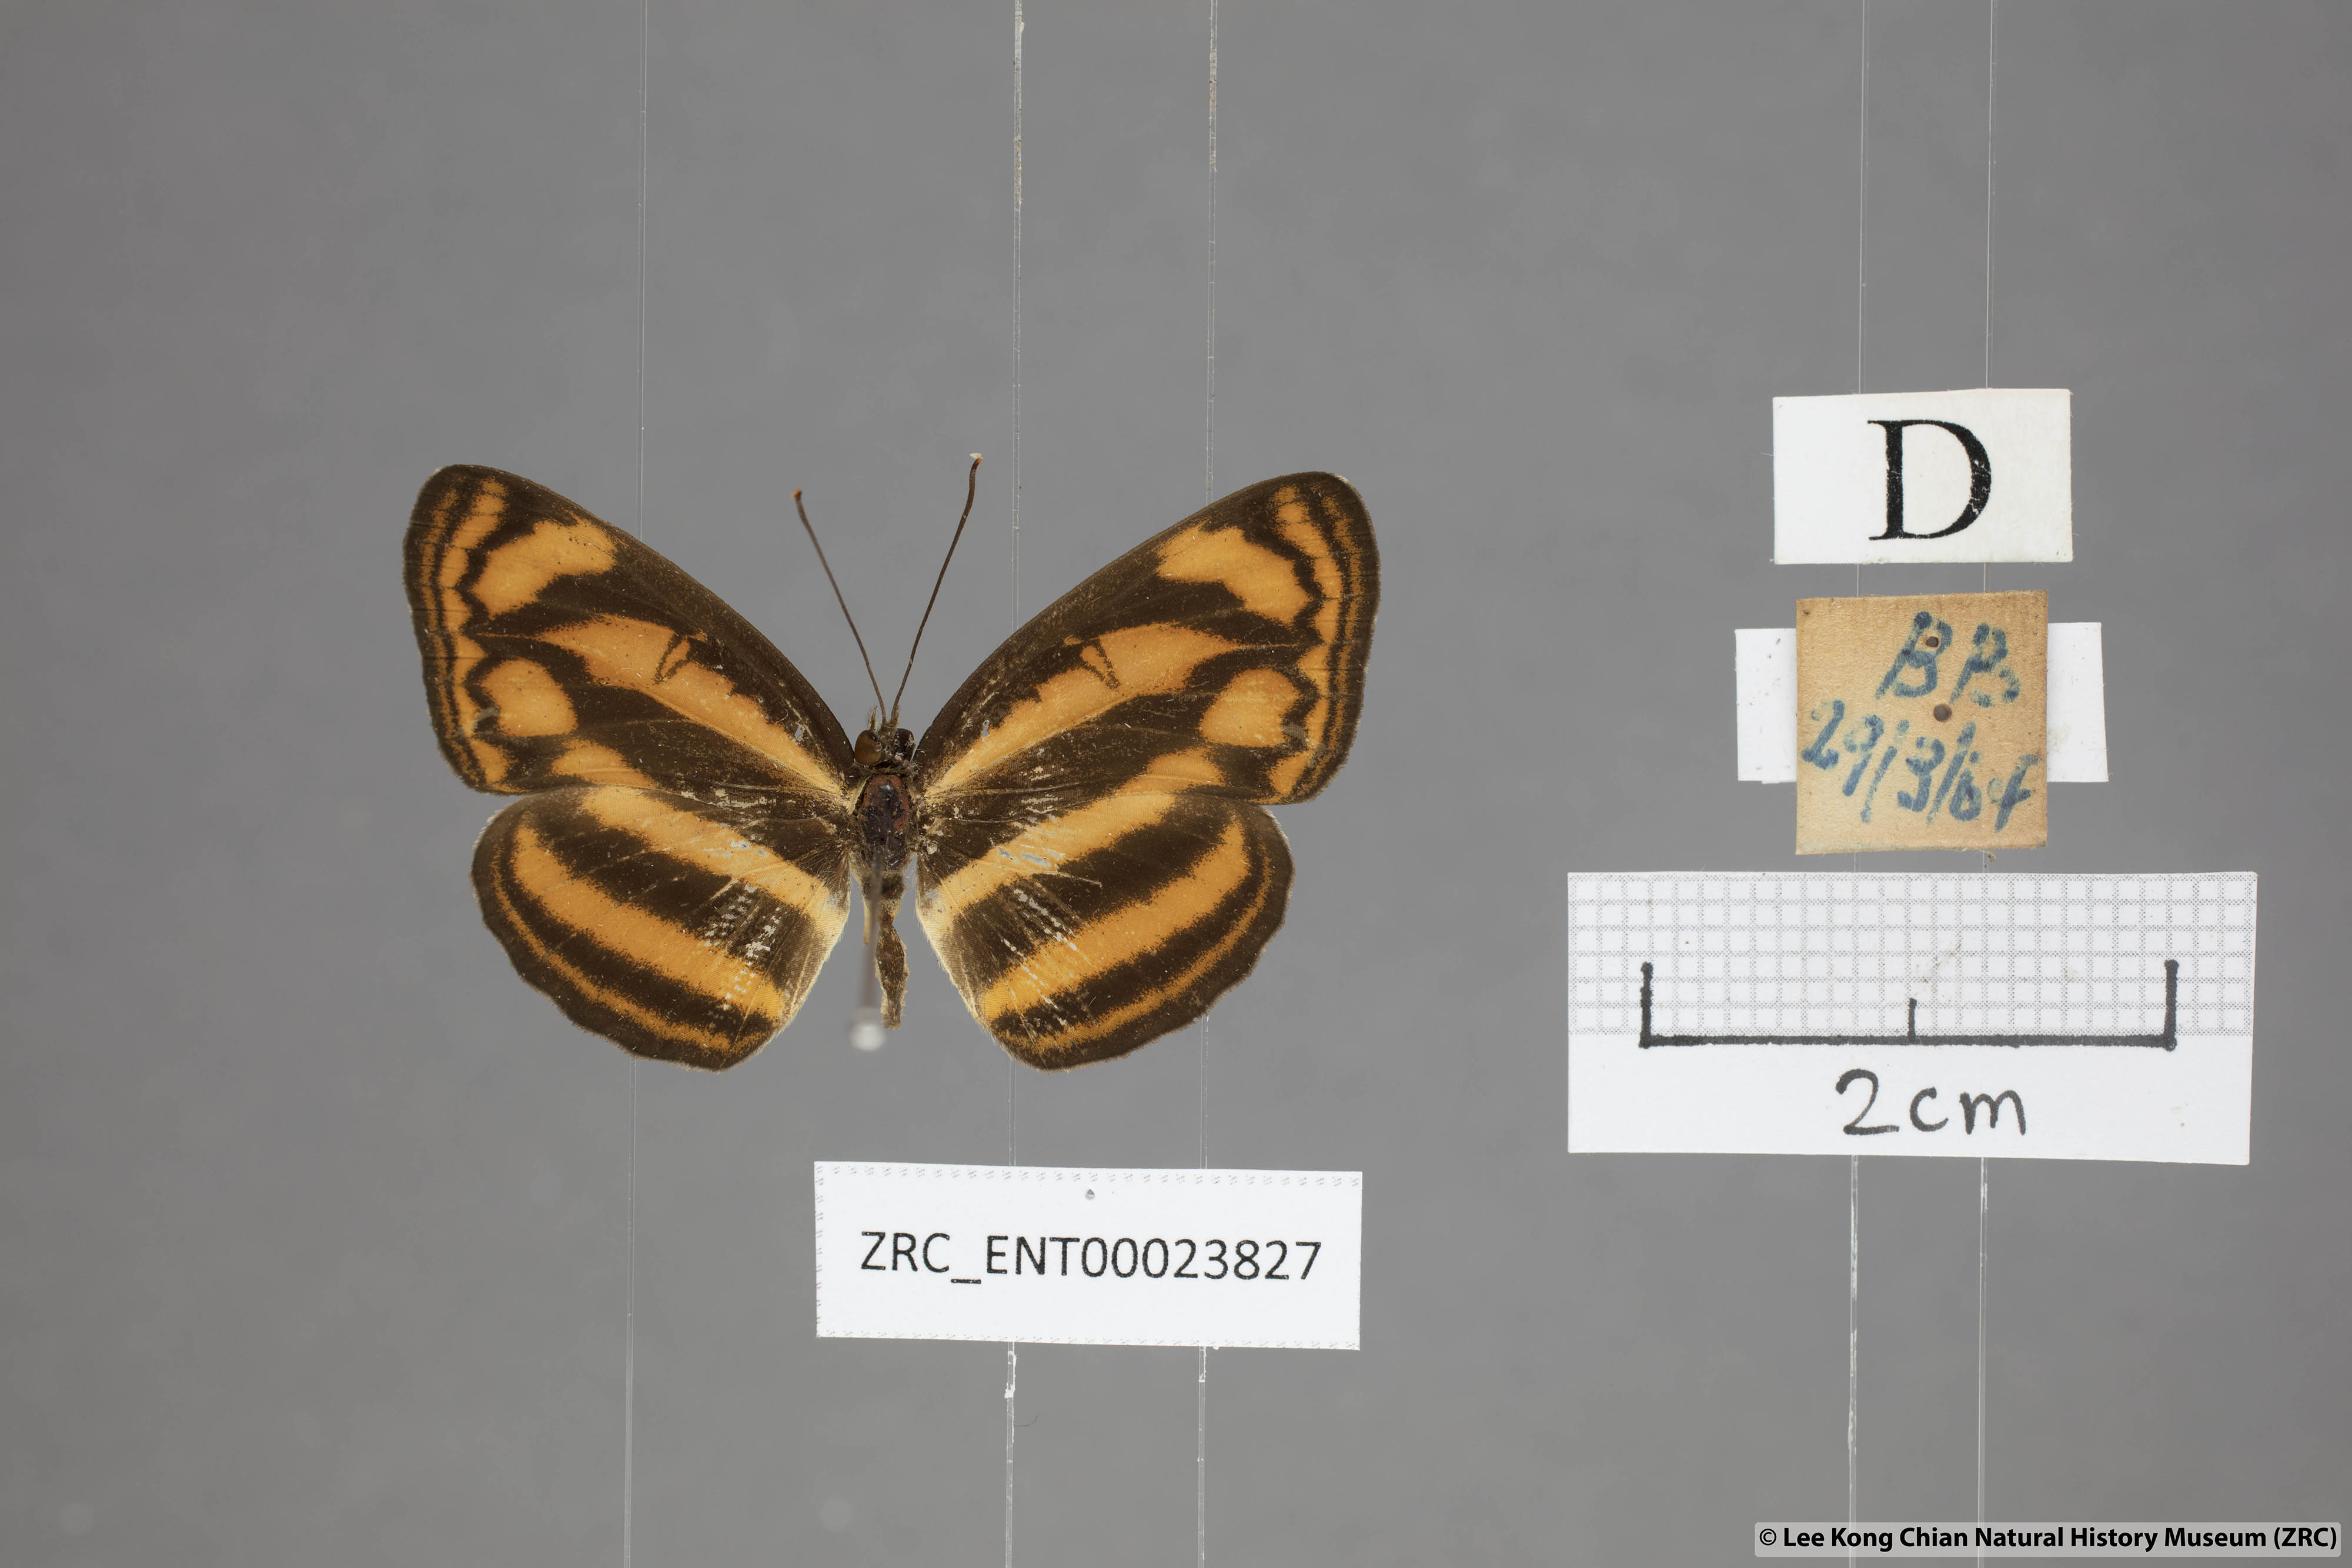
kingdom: Animalia
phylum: Arthropoda
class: Insecta
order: Lepidoptera
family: Nymphalidae
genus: Lasippa
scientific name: Lasippa heliodore
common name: Burmese lascar
